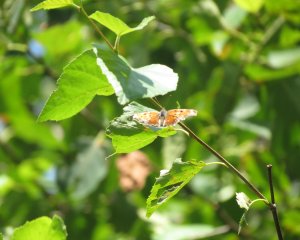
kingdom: Animalia
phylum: Arthropoda
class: Insecta
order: Lepidoptera
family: Nymphalidae
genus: Polygonia
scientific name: Polygonia comma
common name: Eastern Comma
